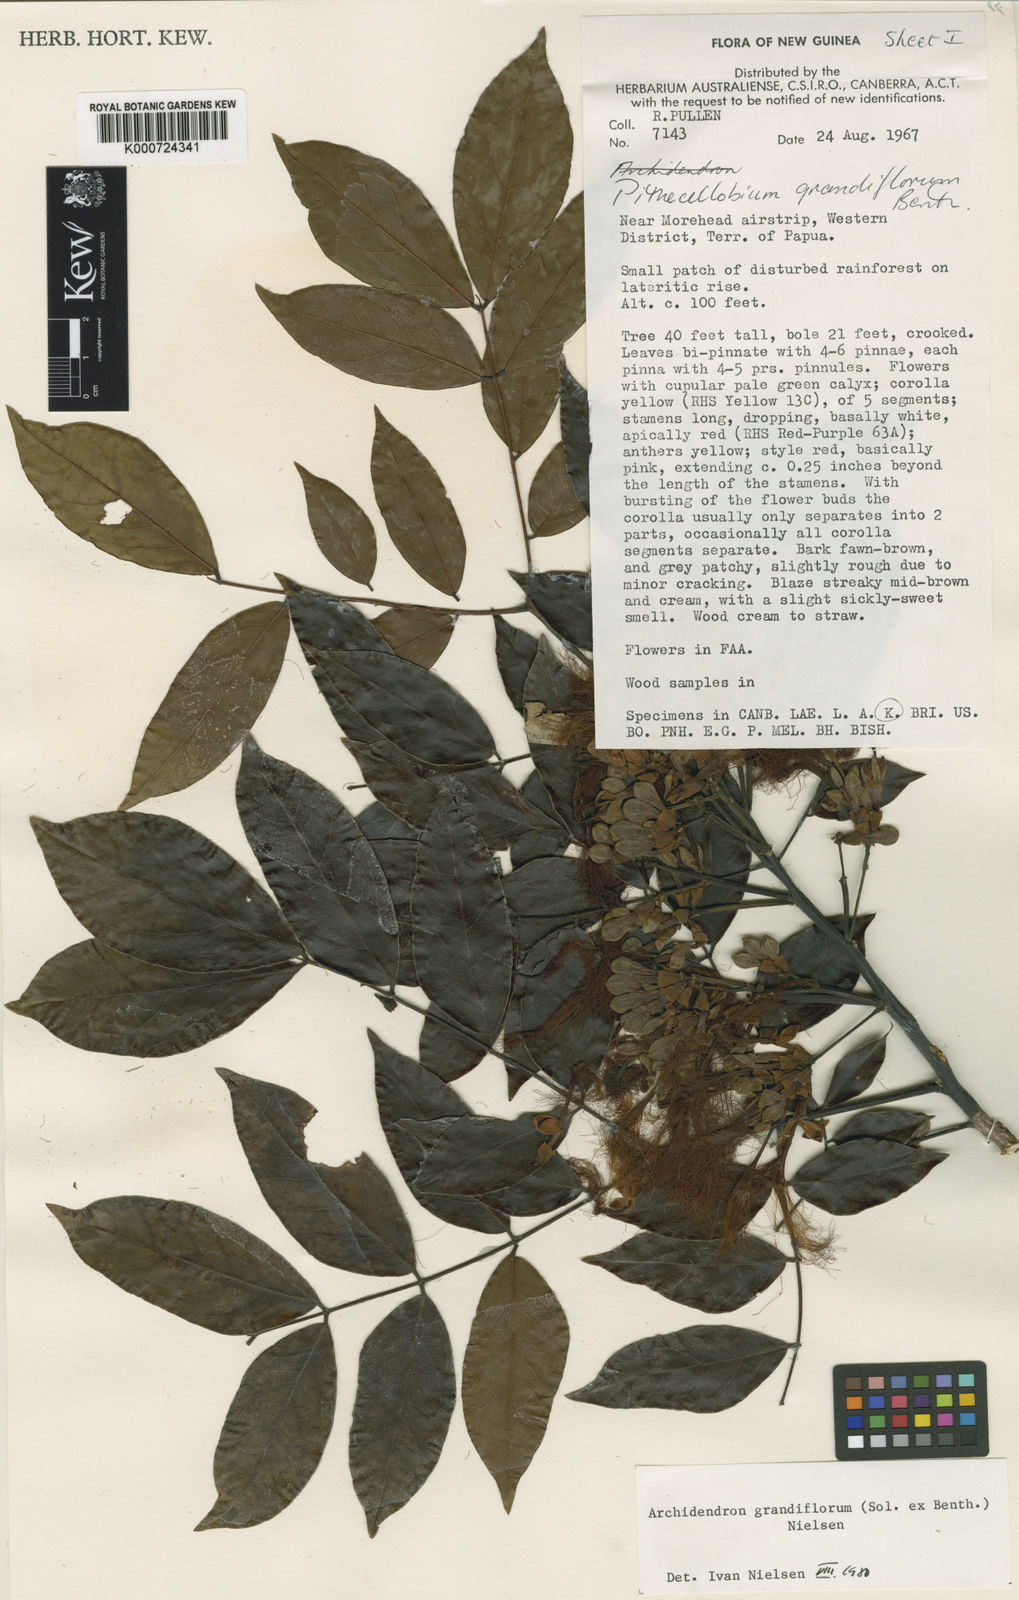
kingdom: Plantae
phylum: Tracheophyta
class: Magnoliopsida
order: Fabales
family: Fabaceae
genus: Archidendron
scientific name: Archidendron grandiflorum
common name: Tulip siris
